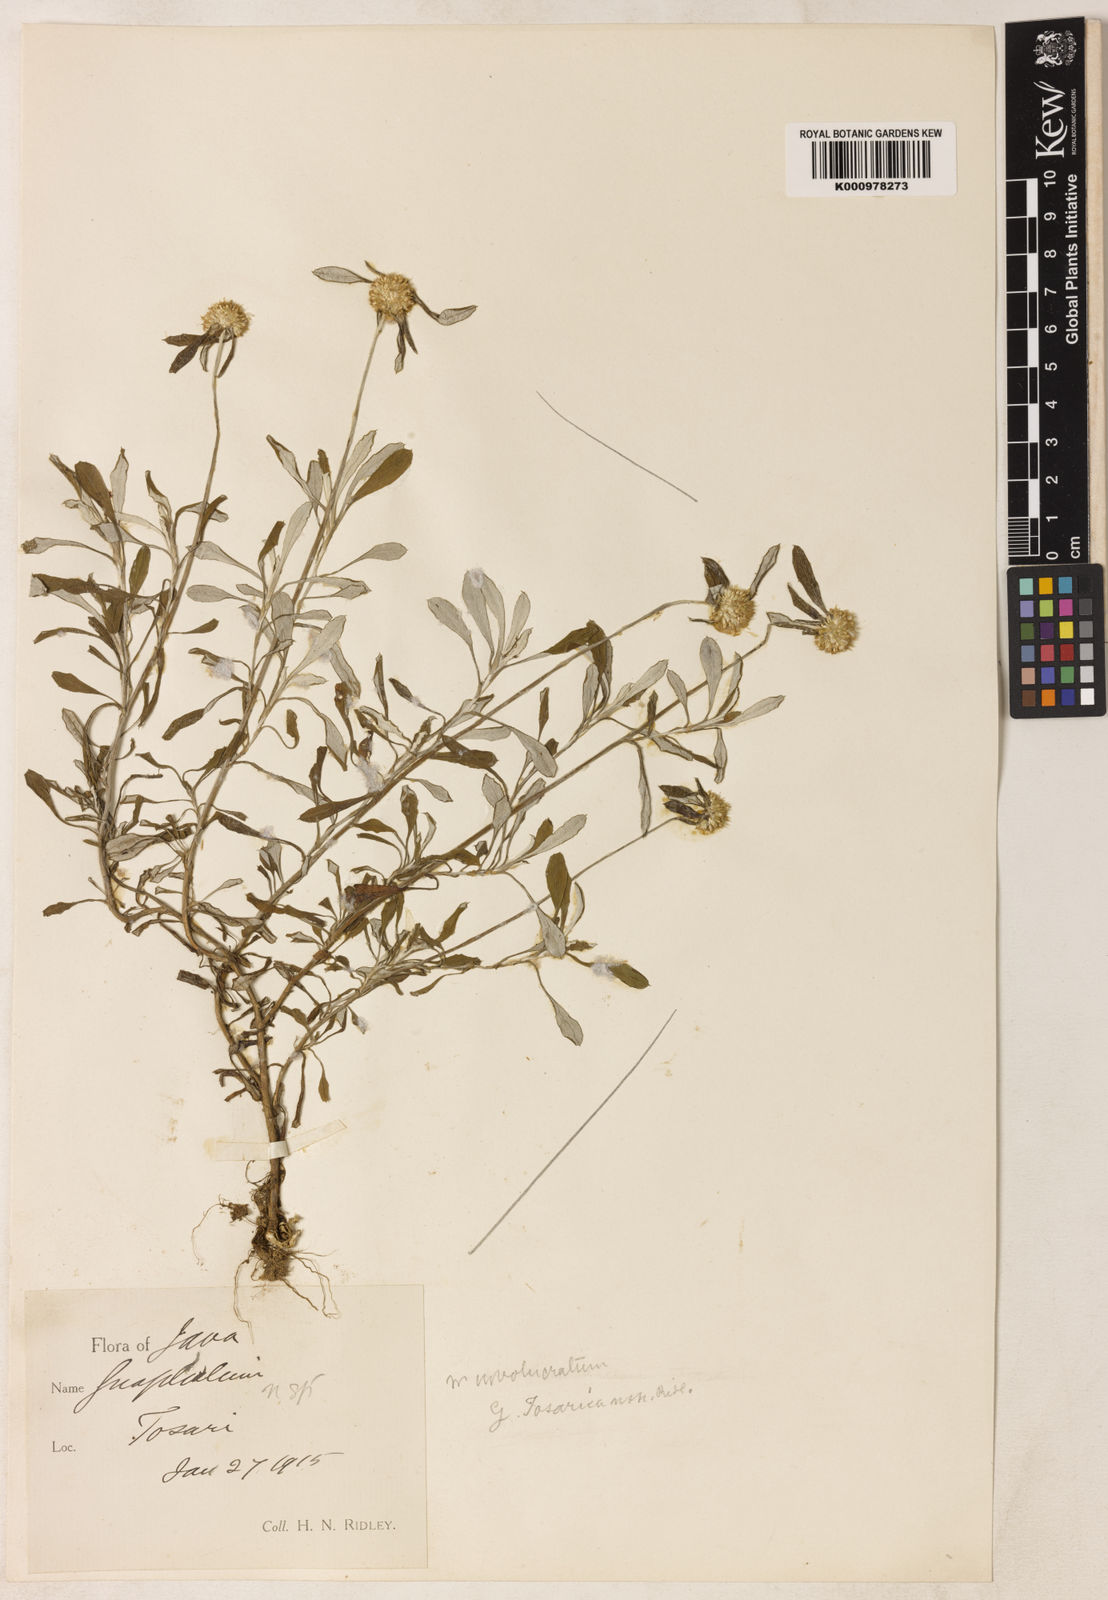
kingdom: Plantae
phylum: Tracheophyta
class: Magnoliopsida
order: Asterales
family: Asteraceae
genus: Gnaphalium
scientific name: Gnaphalium
